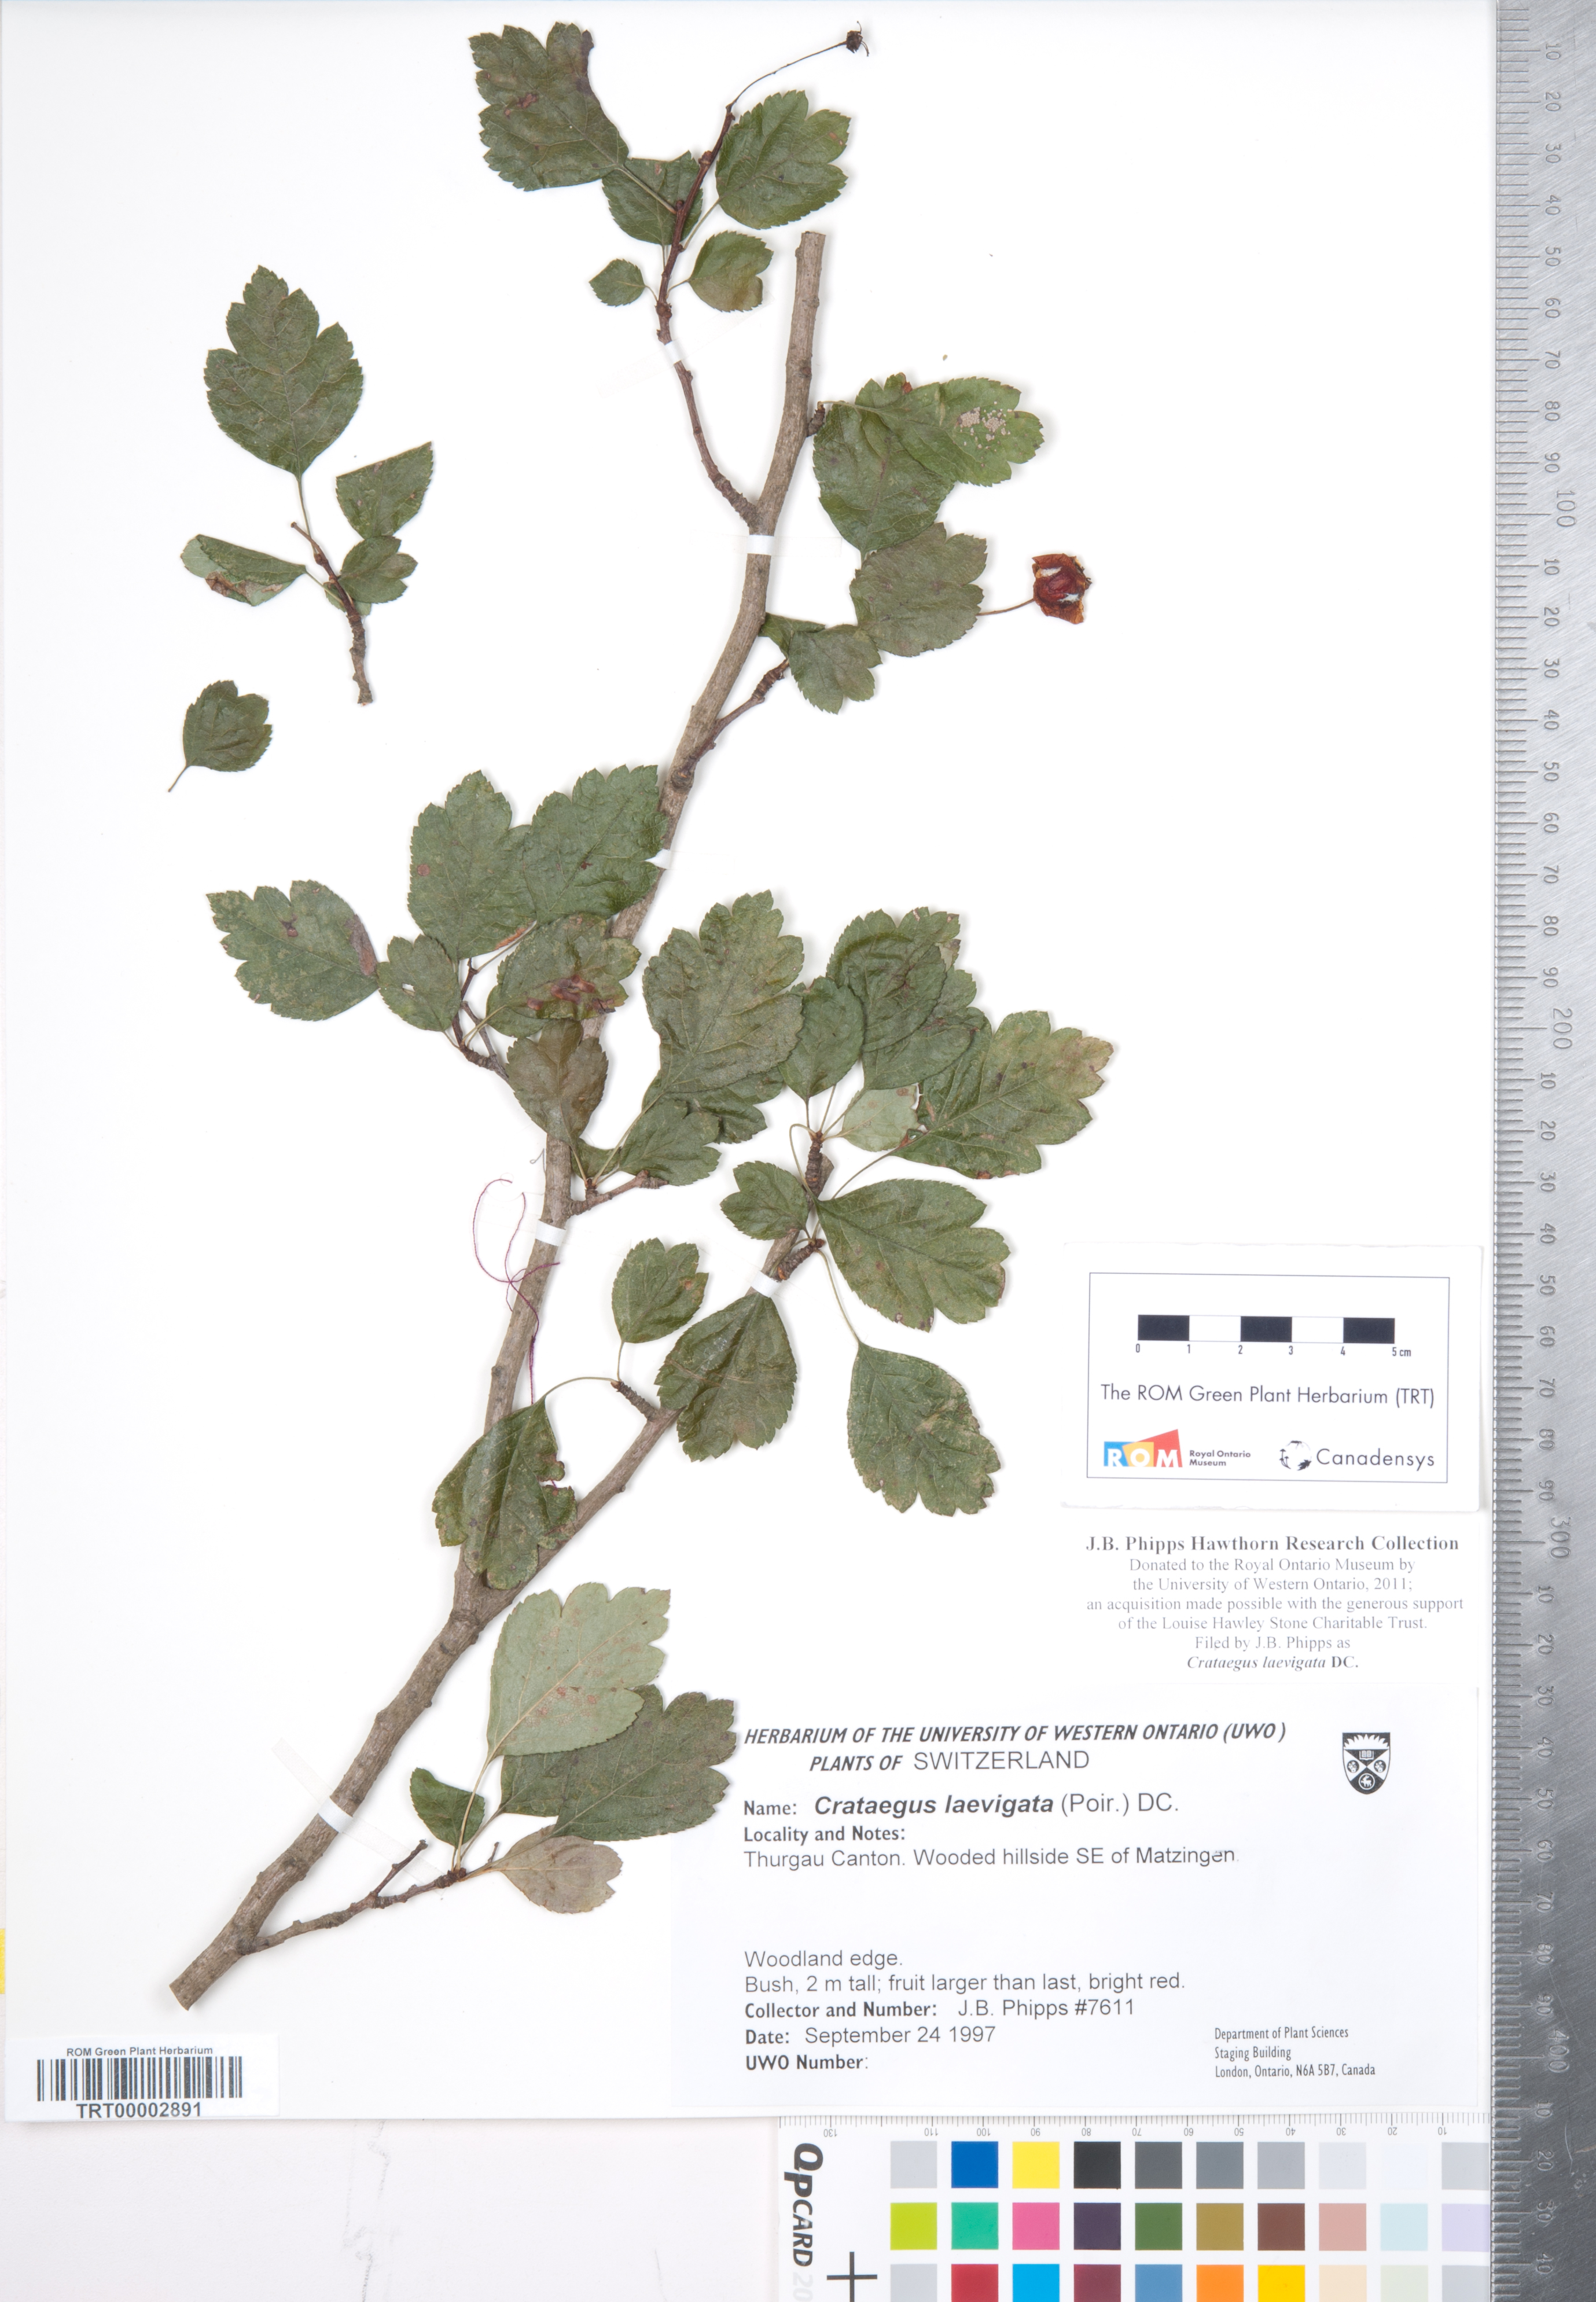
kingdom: Plantae
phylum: Tracheophyta
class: Magnoliopsida
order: Rosales
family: Rosaceae
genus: Crataegus
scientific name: Crataegus laevigata
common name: Midland hawthorn
